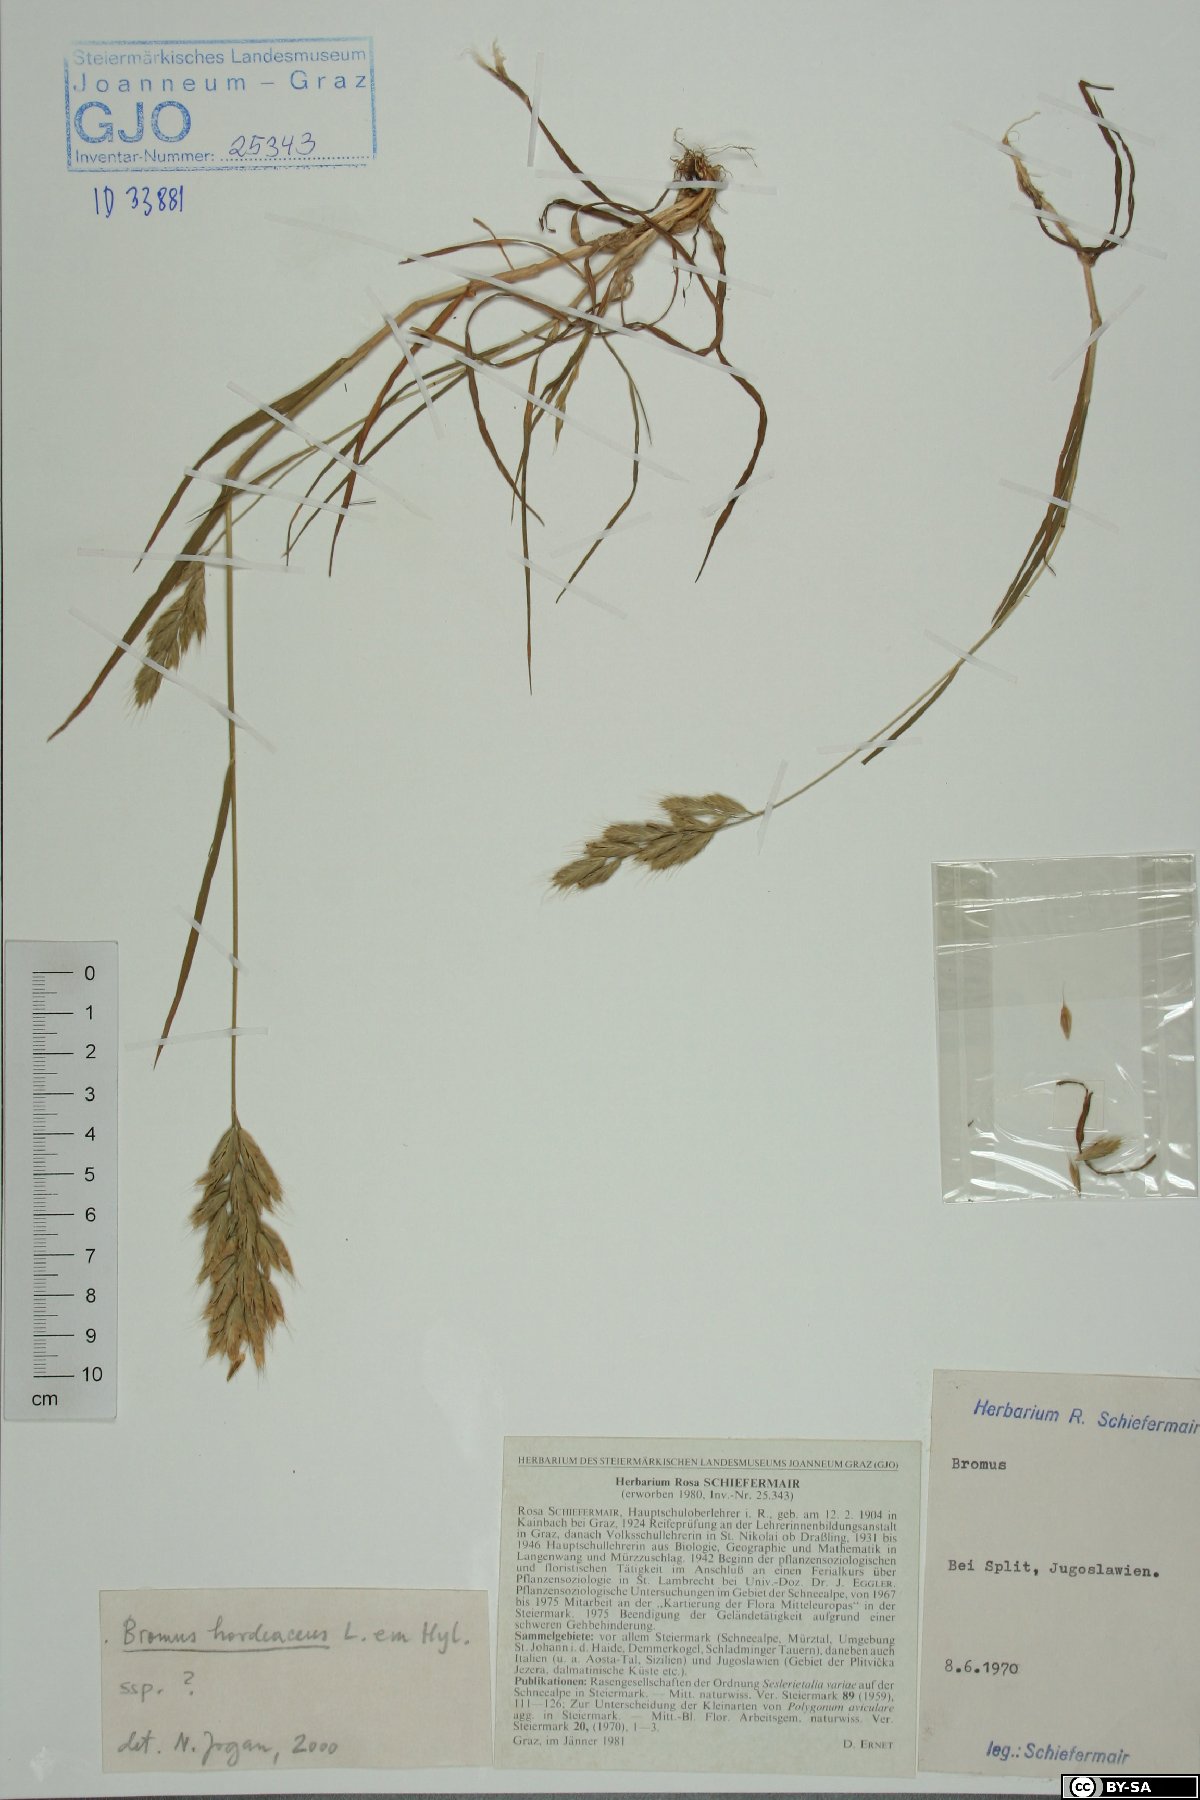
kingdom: Plantae
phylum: Tracheophyta
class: Liliopsida
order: Poales
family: Poaceae
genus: Bromus
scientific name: Bromus hordeaceus
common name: Soft brome
